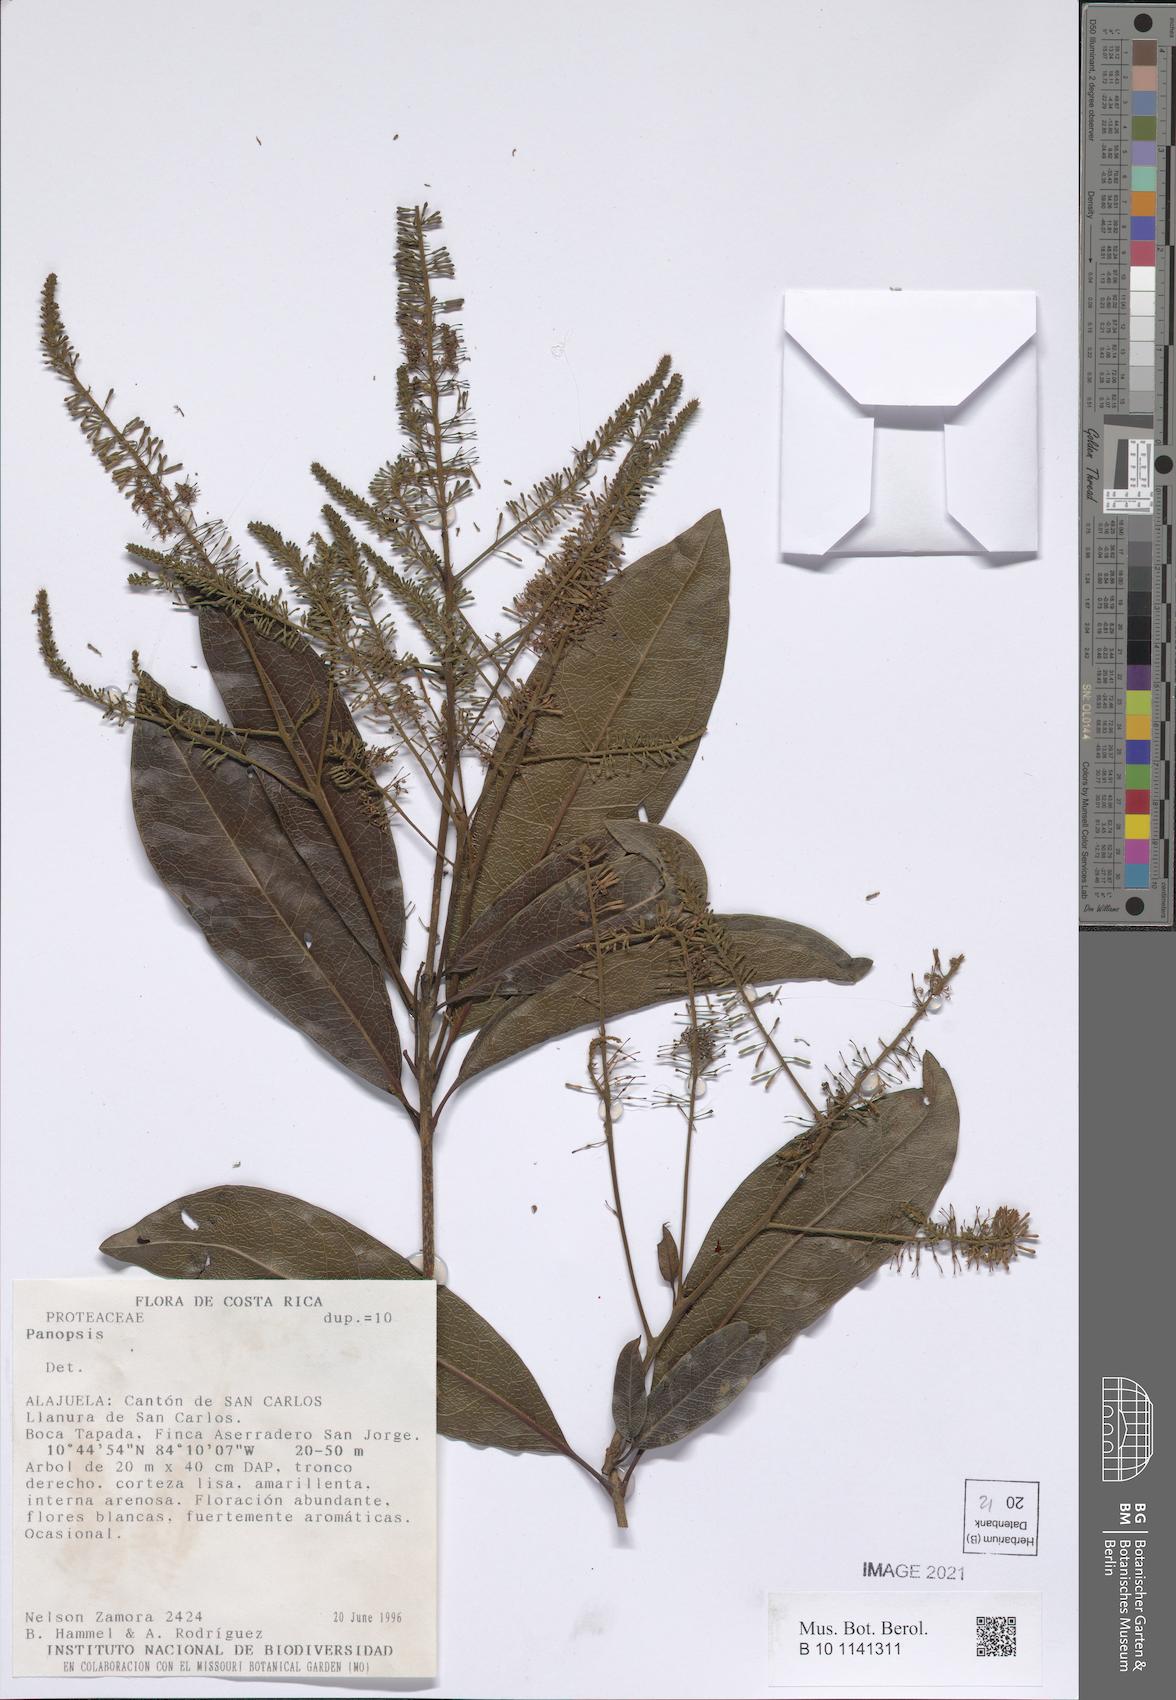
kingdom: Plantae
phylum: Tracheophyta
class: Magnoliopsida
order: Proteales
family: Proteaceae
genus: Panopsis
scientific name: Panopsis
